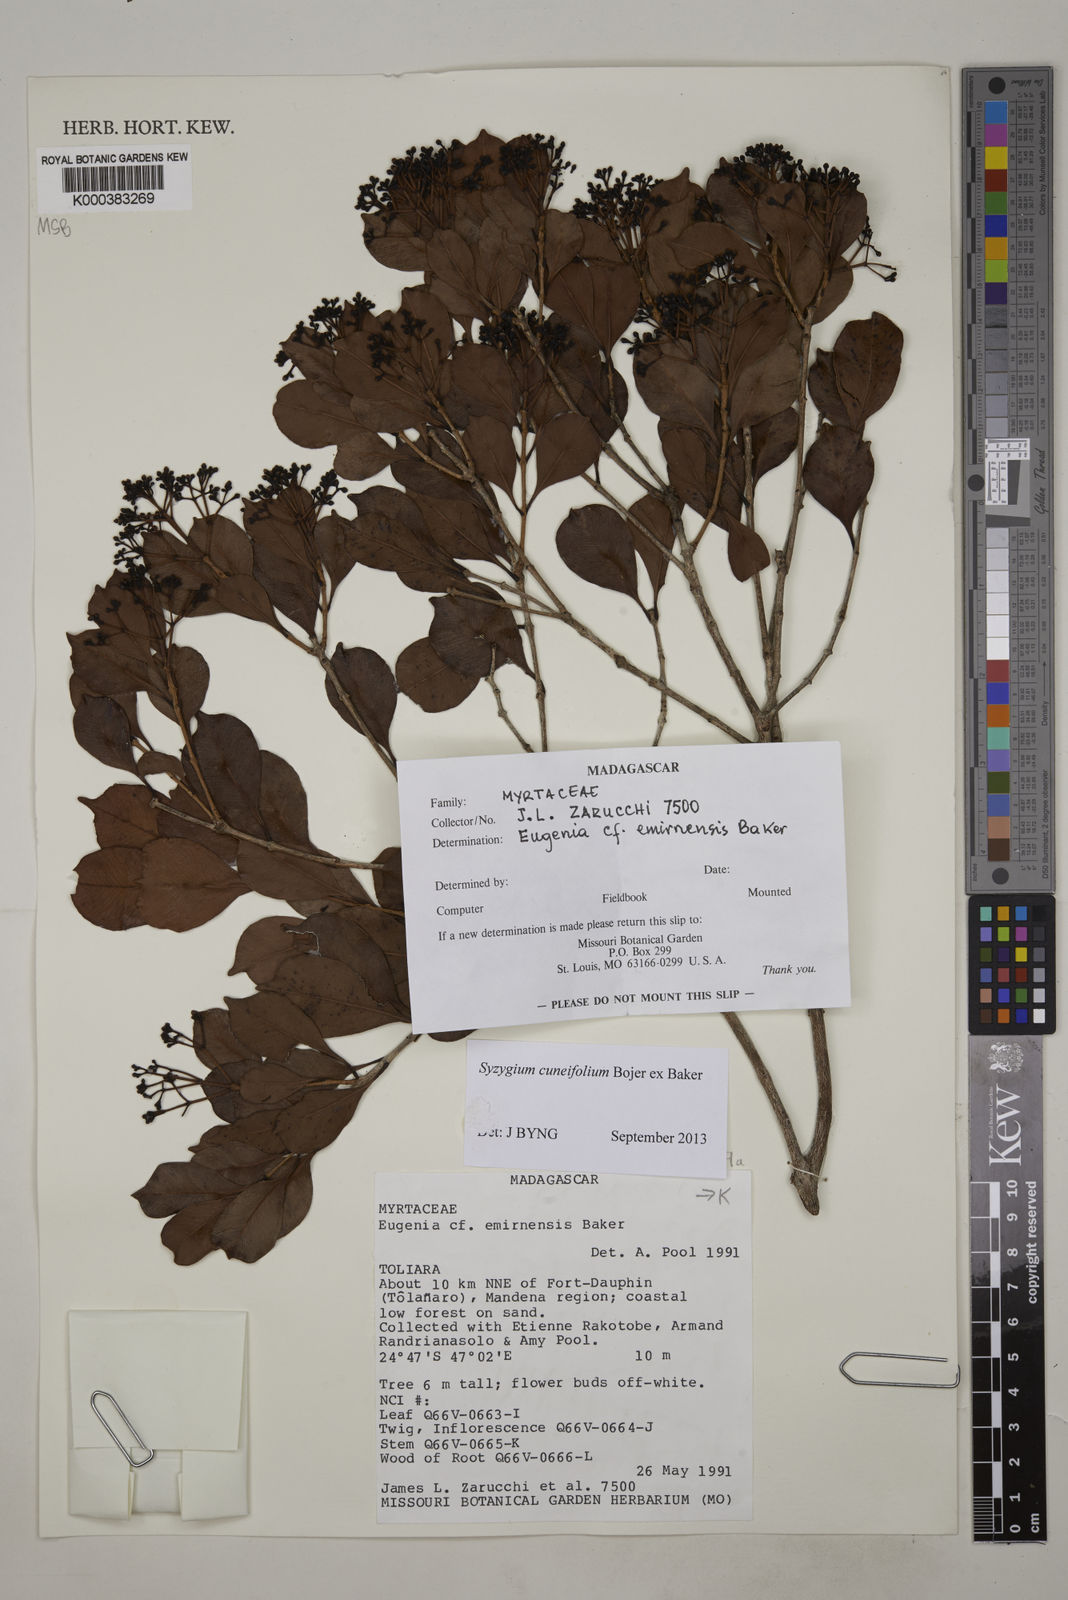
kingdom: Plantae
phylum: Tracheophyta
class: Magnoliopsida
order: Myrtales
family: Myrtaceae
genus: Syzygium
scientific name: Syzygium emirnense
